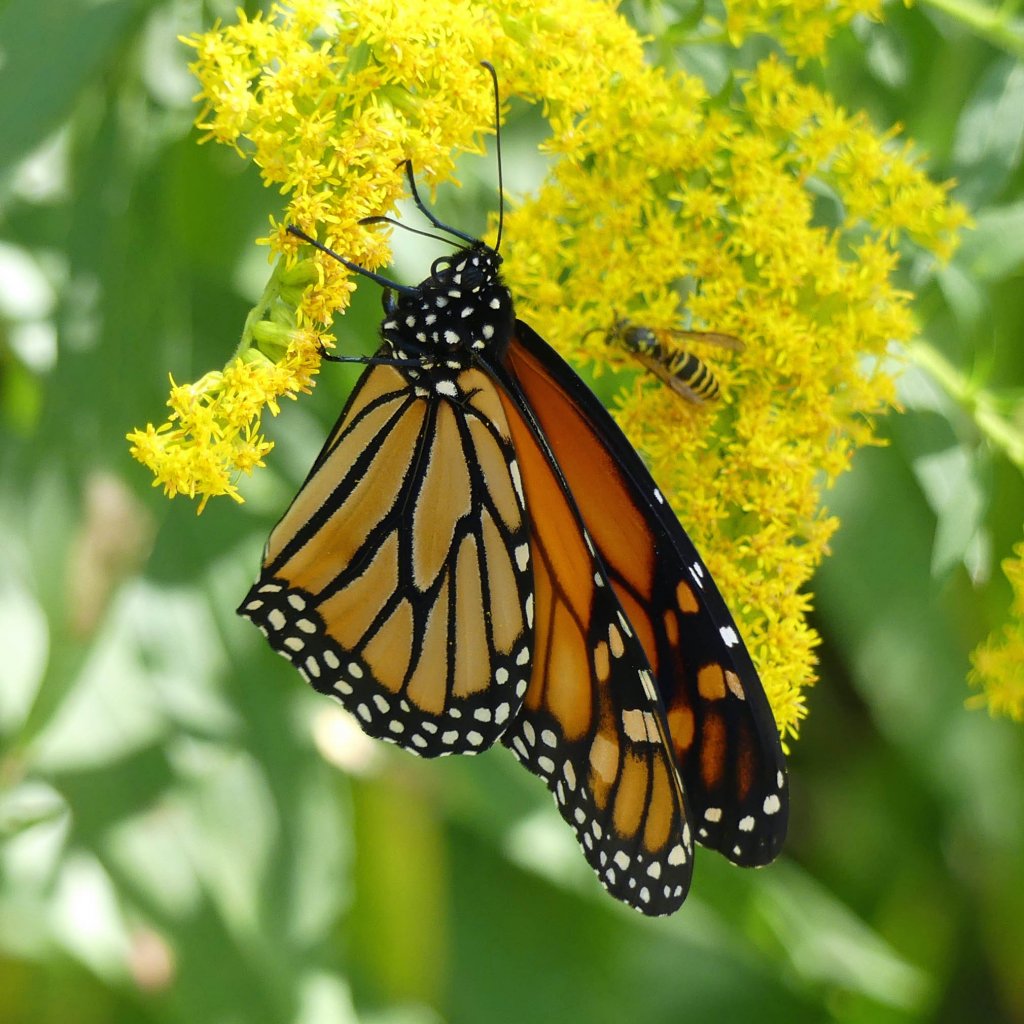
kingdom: Animalia
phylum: Arthropoda
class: Insecta
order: Lepidoptera
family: Nymphalidae
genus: Danaus
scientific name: Danaus plexippus
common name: Monarch
